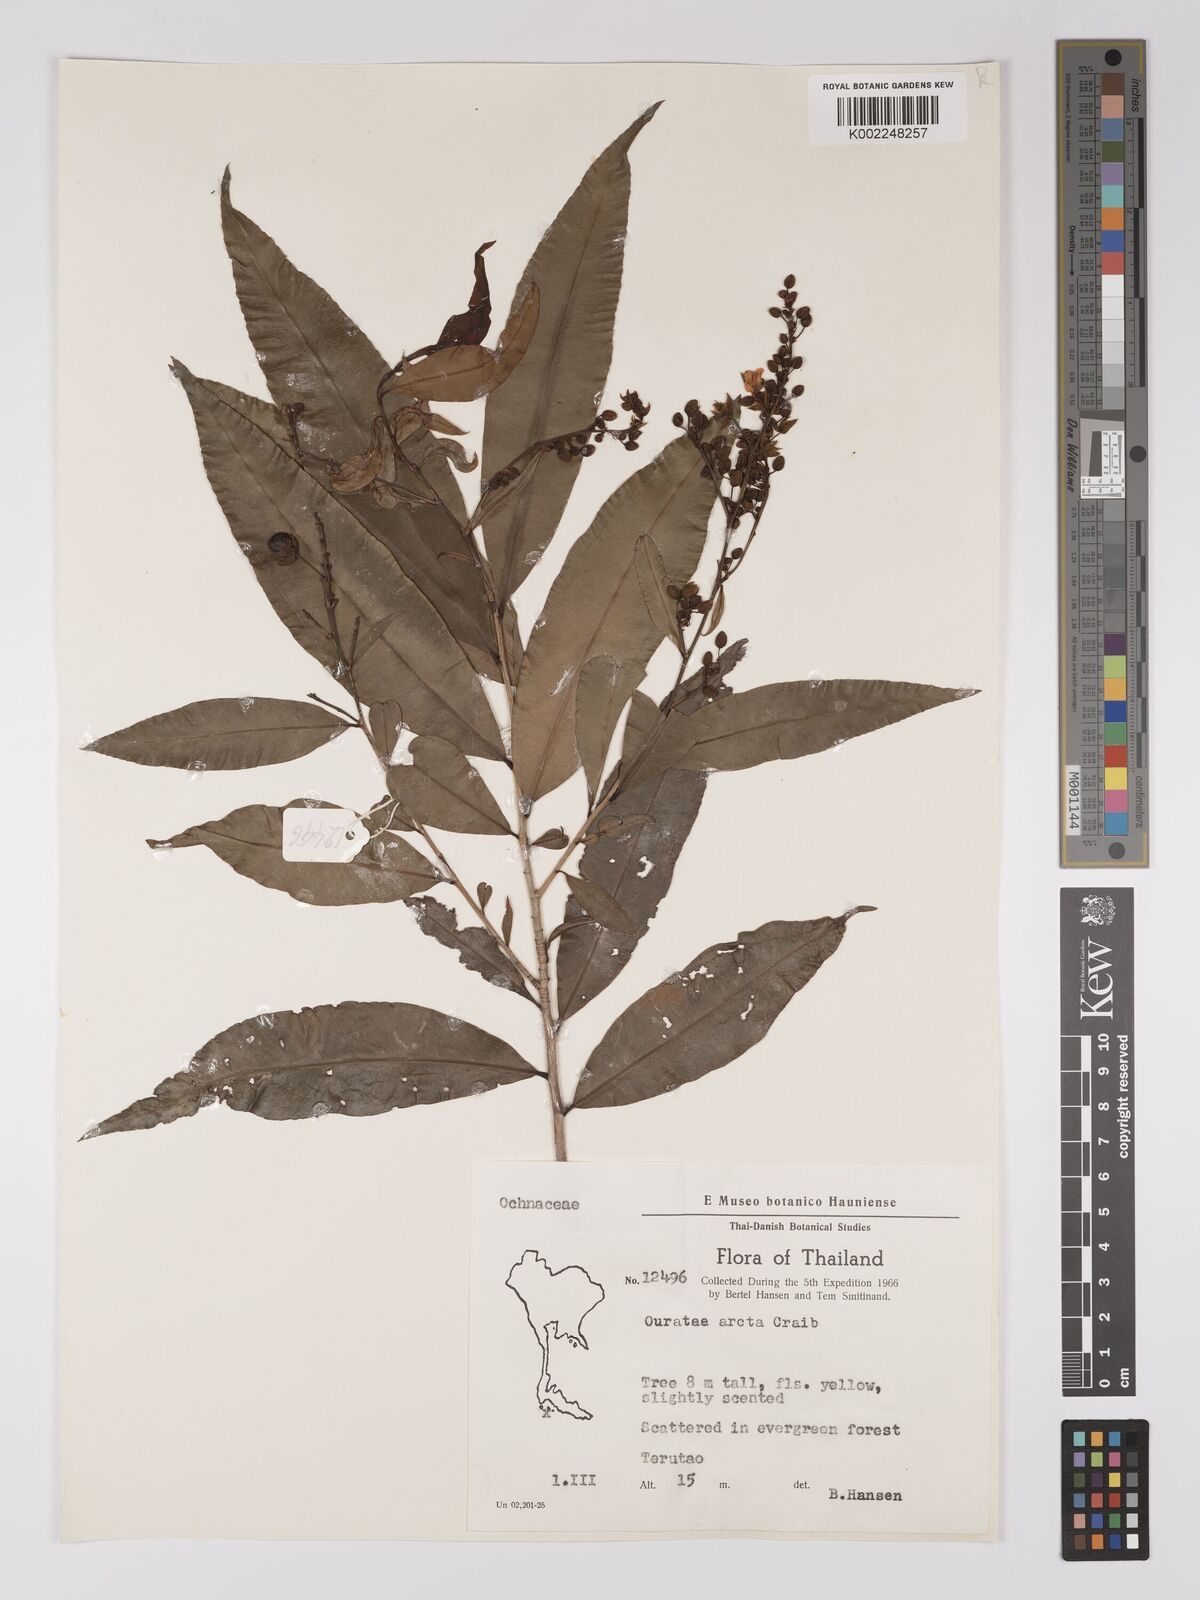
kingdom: Plantae
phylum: Tracheophyta
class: Magnoliopsida
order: Malpighiales
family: Ochnaceae
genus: Gomphia
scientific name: Gomphia serrata
